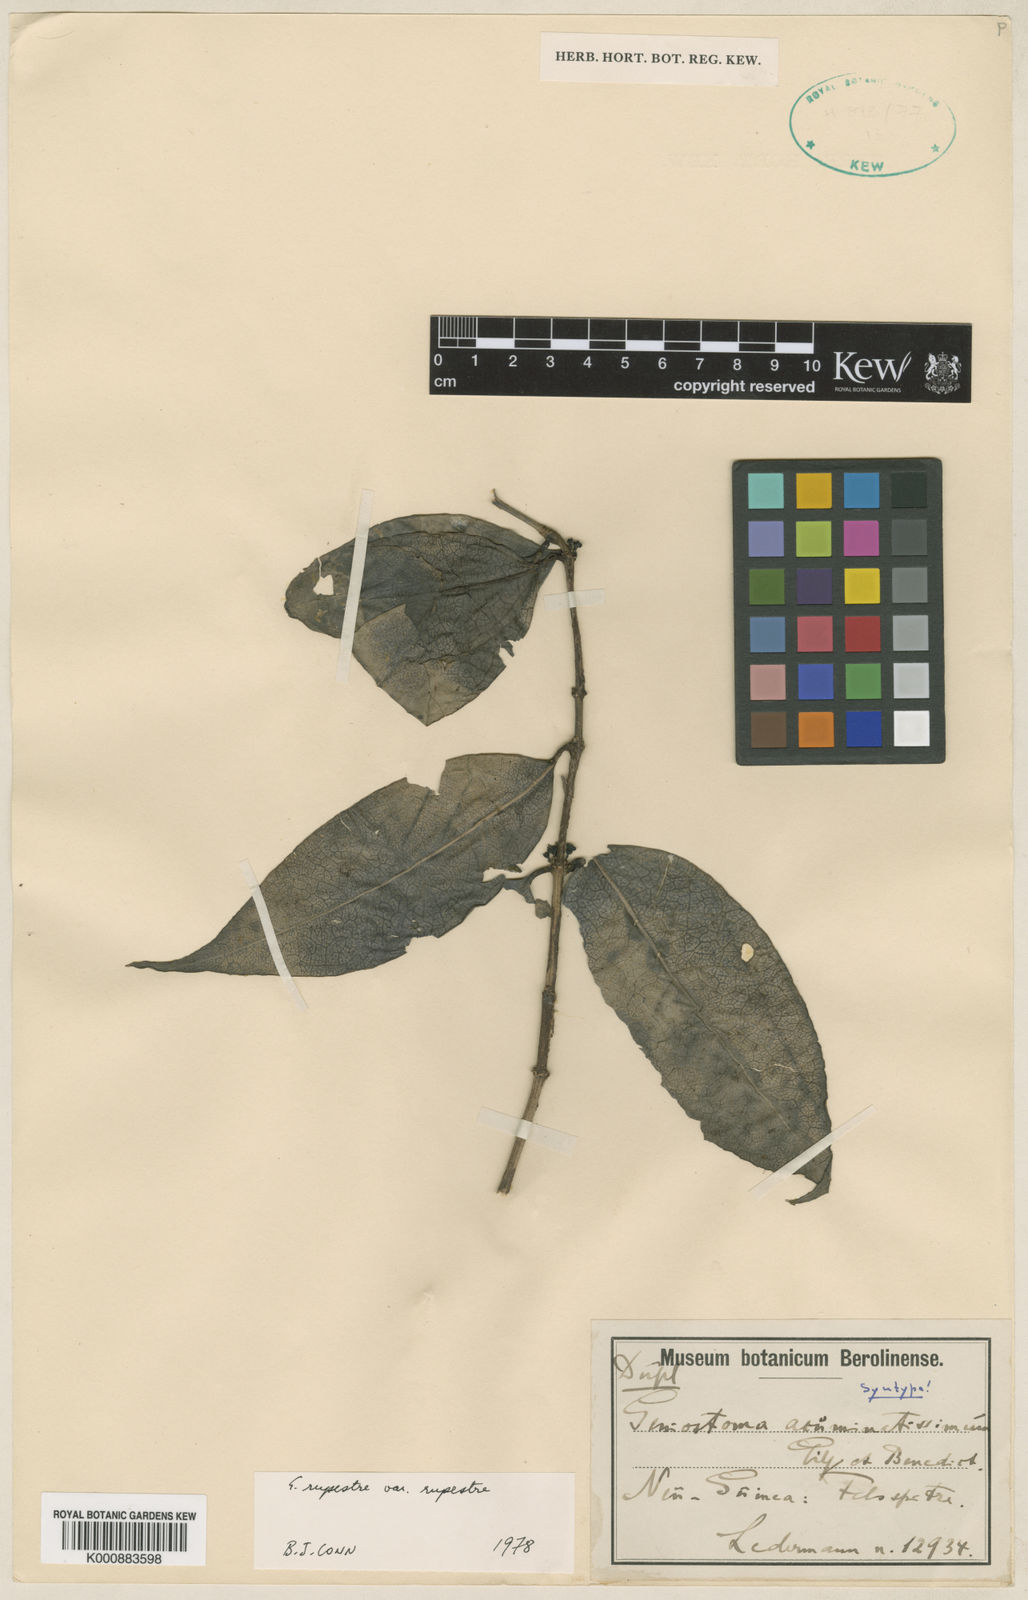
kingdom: Plantae
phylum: Tracheophyta
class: Magnoliopsida
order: Gentianales
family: Loganiaceae
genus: Geniostoma
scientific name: Geniostoma rupestre
